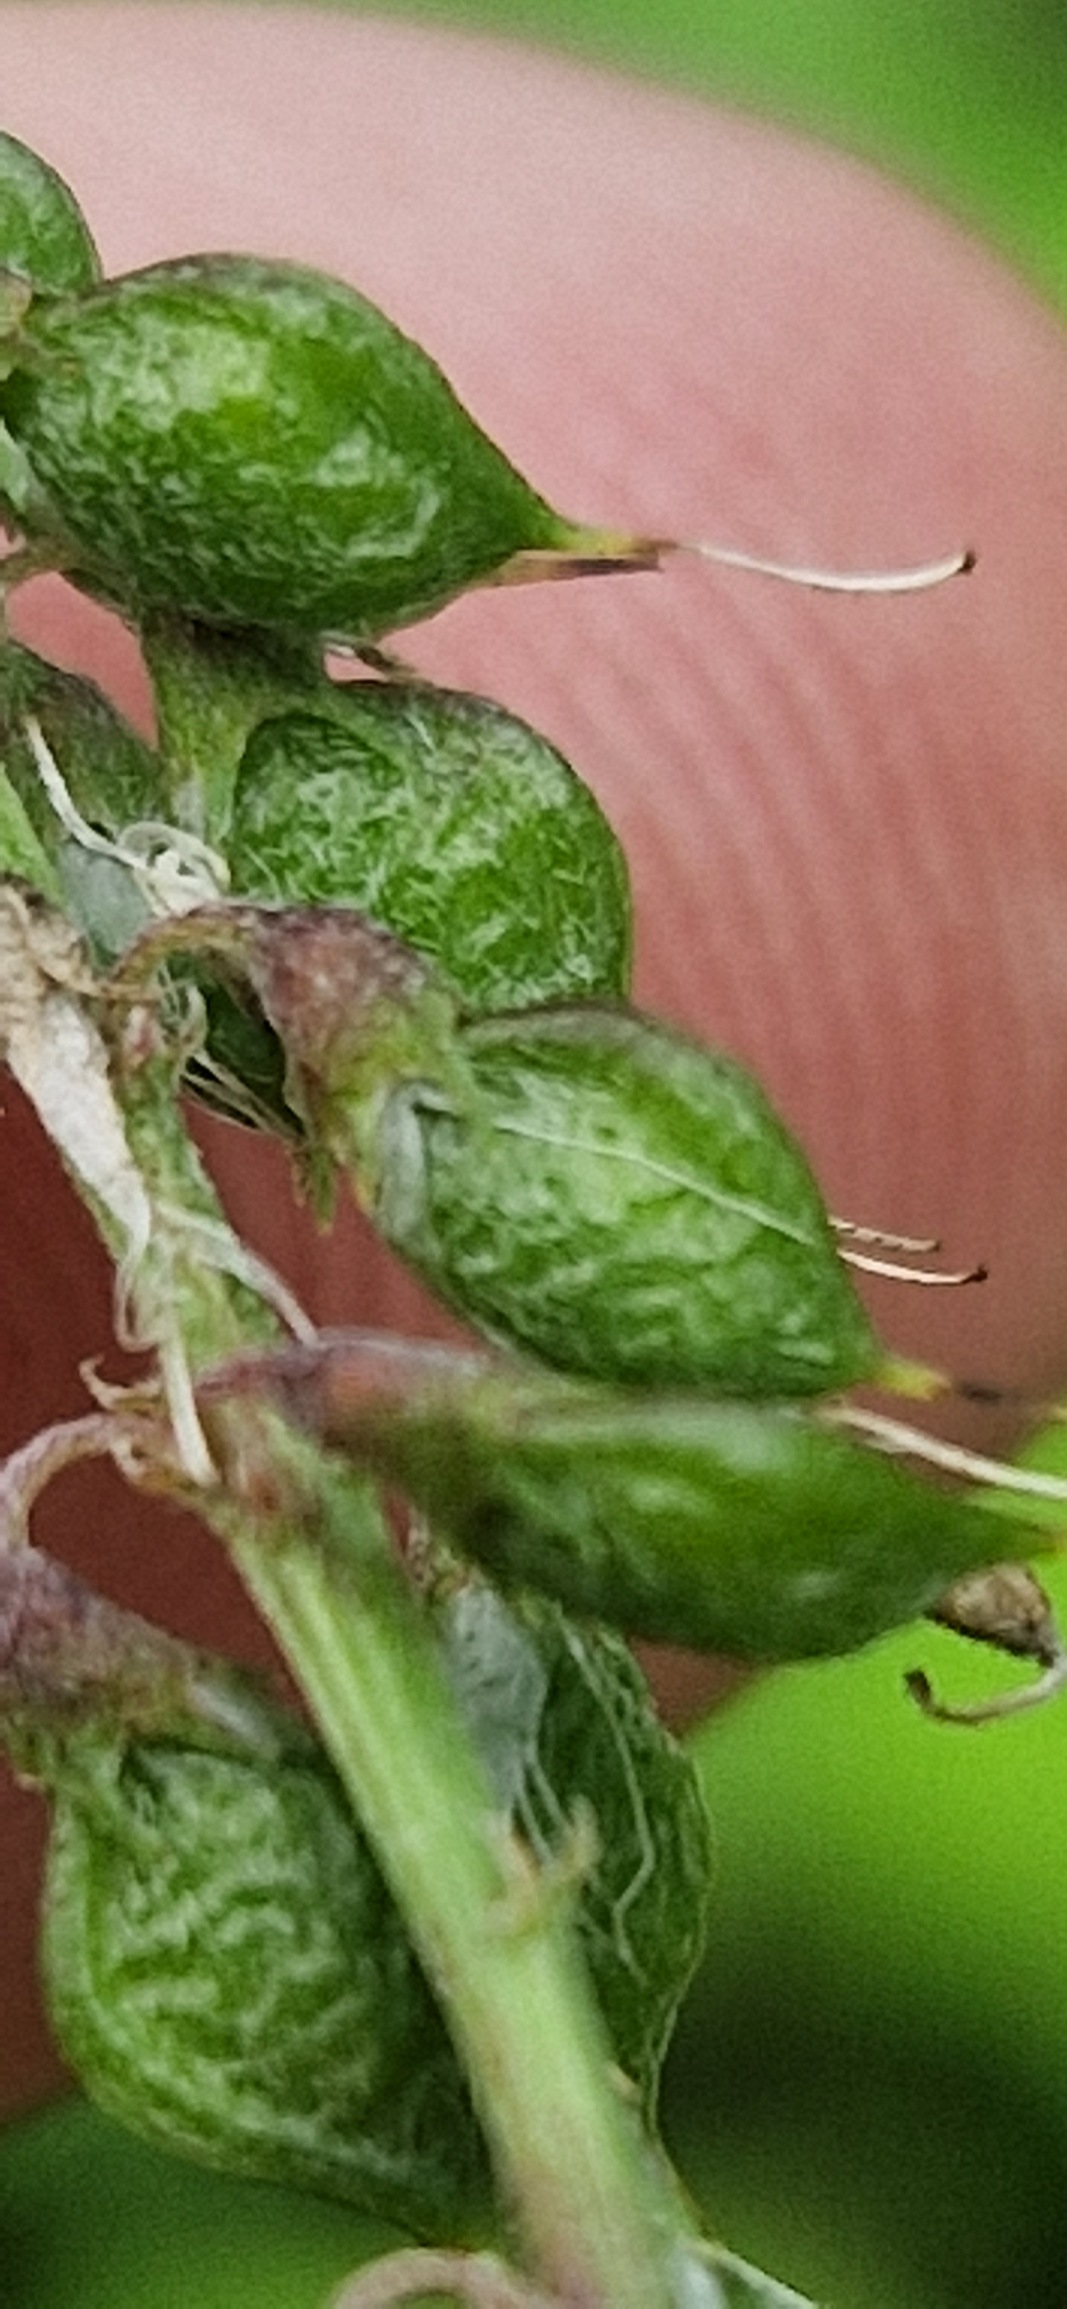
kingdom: Plantae
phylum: Tracheophyta
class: Magnoliopsida
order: Fabales
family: Fabaceae
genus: Melilotus
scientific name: Melilotus altissimus
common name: Høj stenkløver
